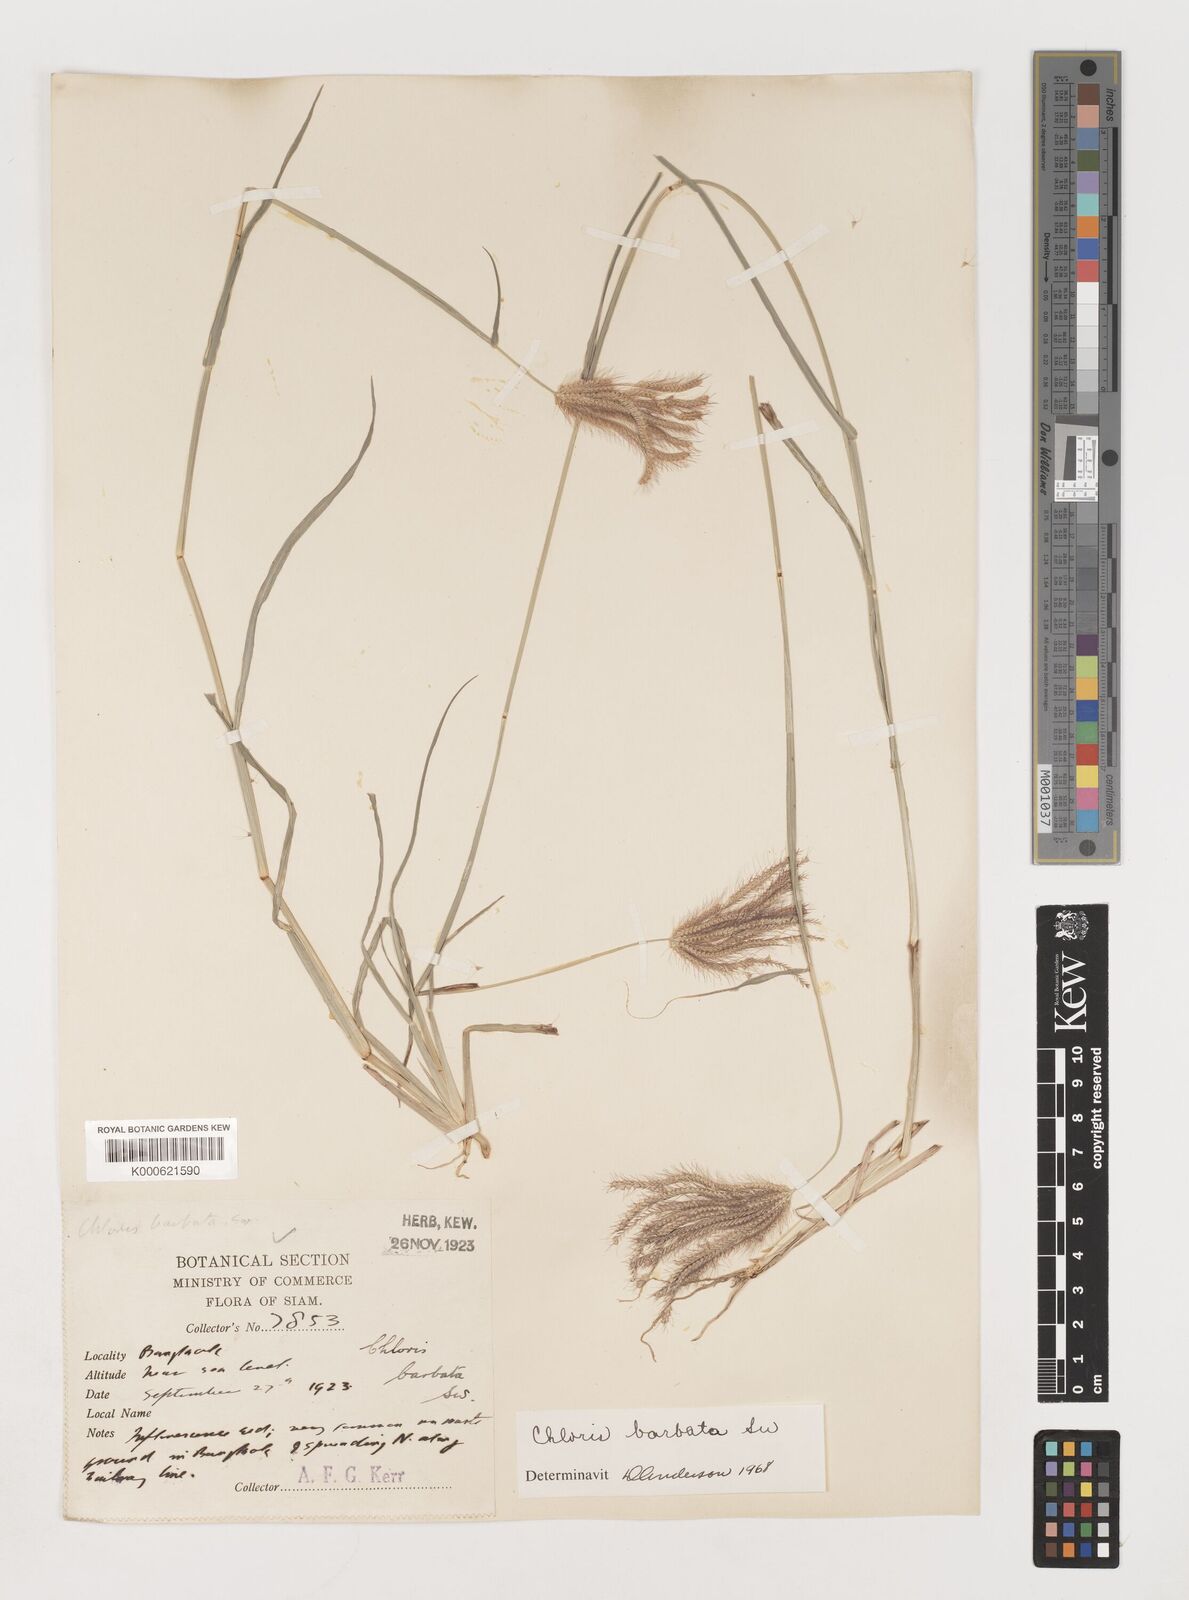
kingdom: Plantae
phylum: Tracheophyta
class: Liliopsida
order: Poales
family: Poaceae
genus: Chloris
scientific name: Chloris barbata
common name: Swollen fingergrass
